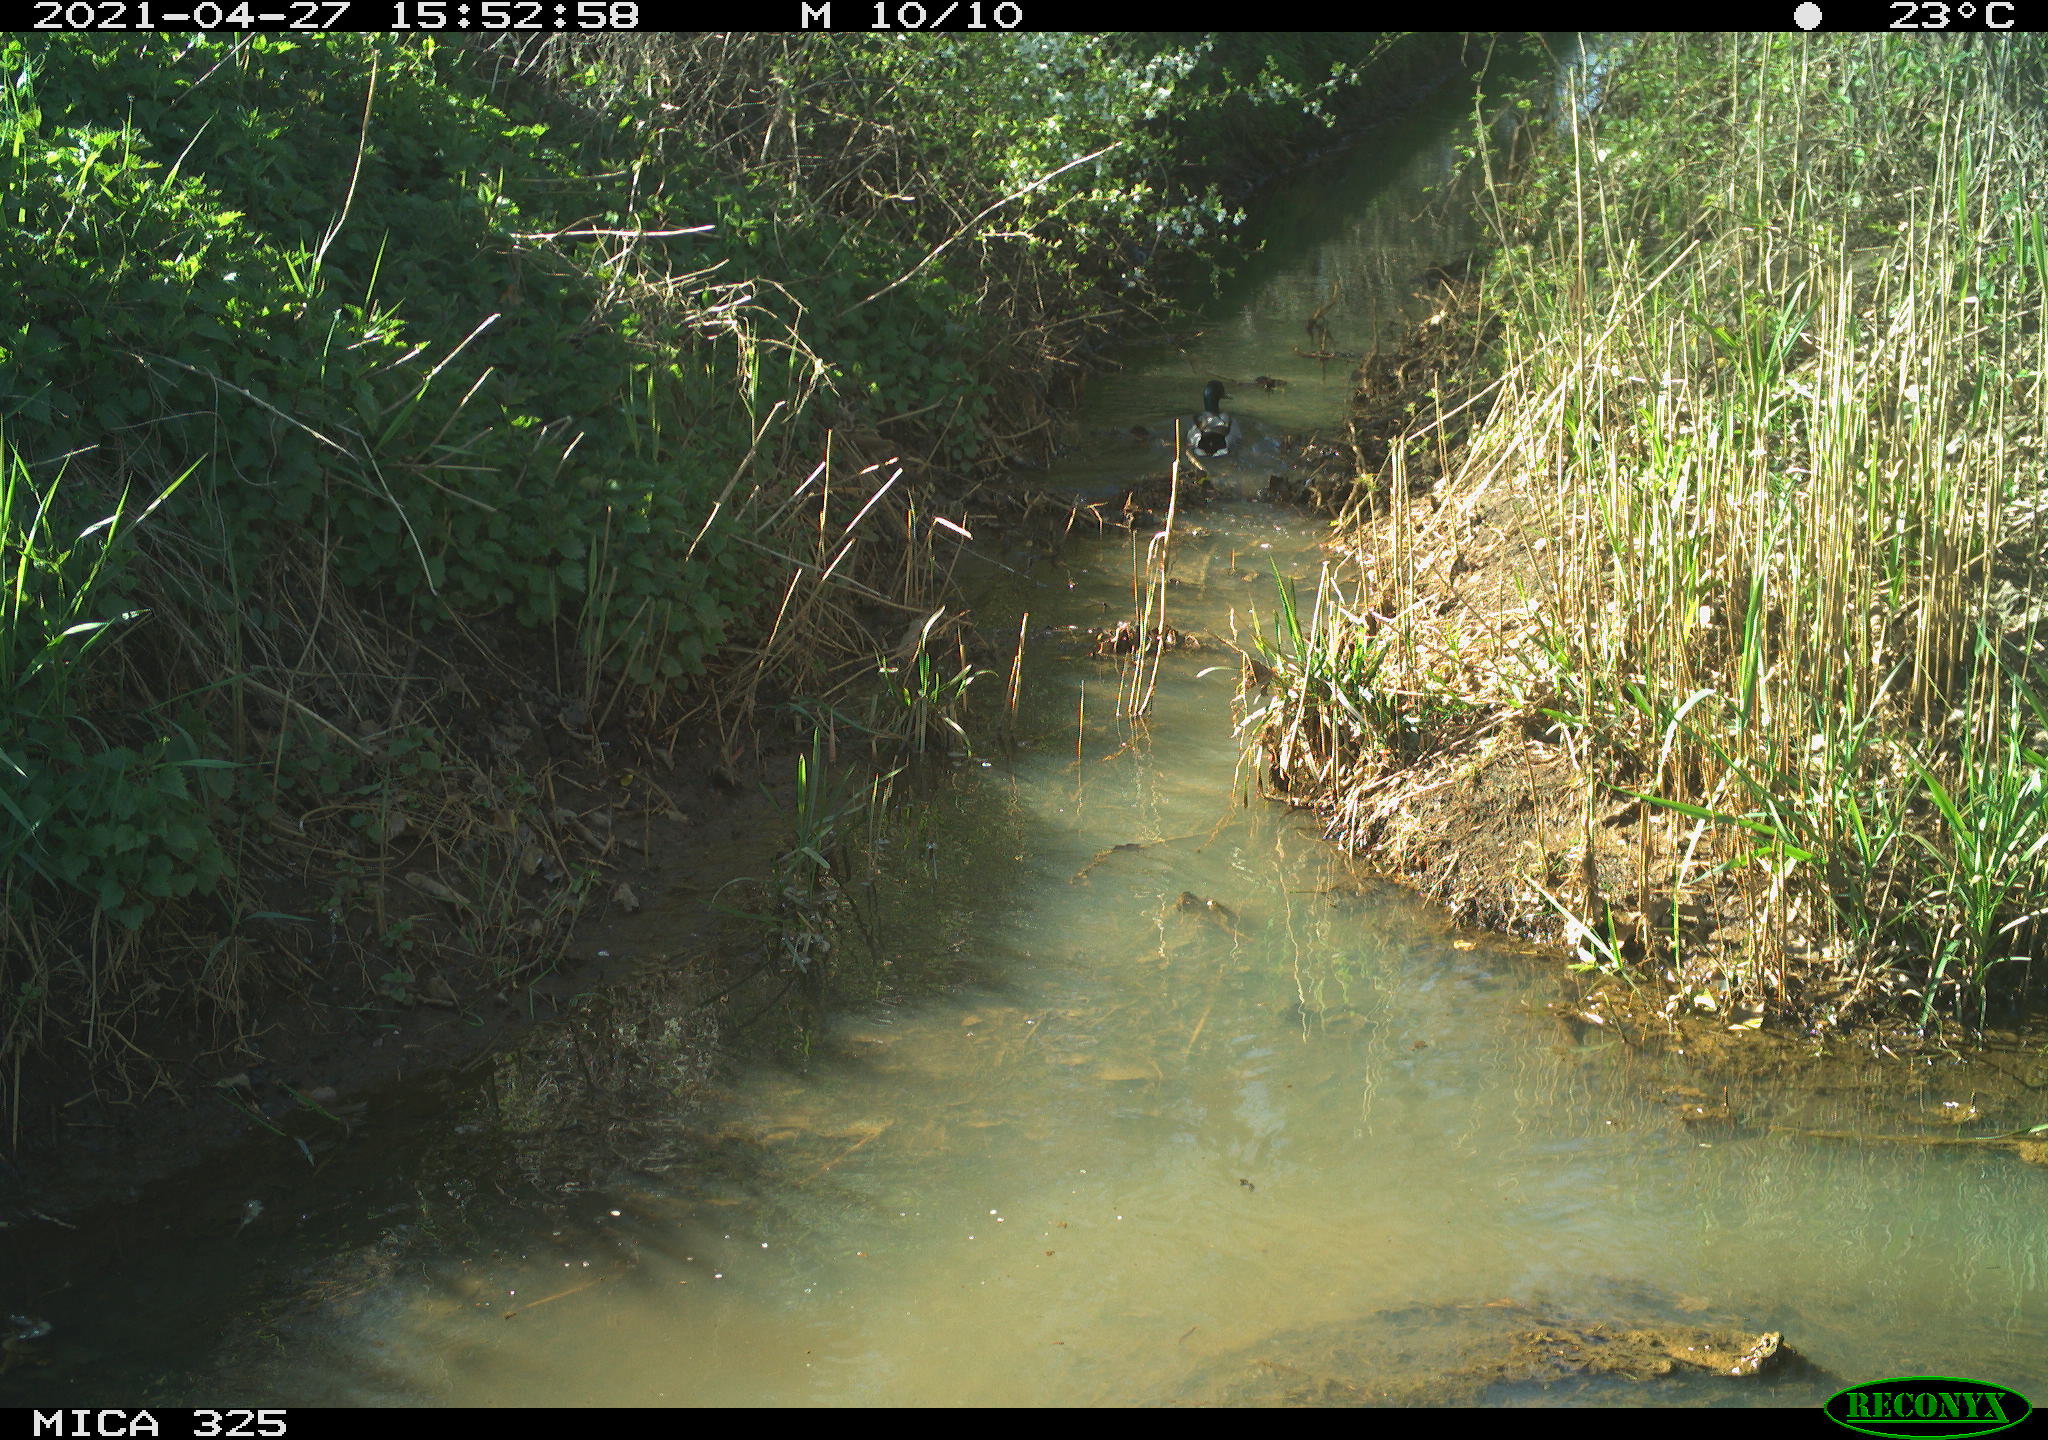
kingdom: Animalia
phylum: Chordata
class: Aves
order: Anseriformes
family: Anatidae
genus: Anas
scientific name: Anas platyrhynchos
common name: Mallard
